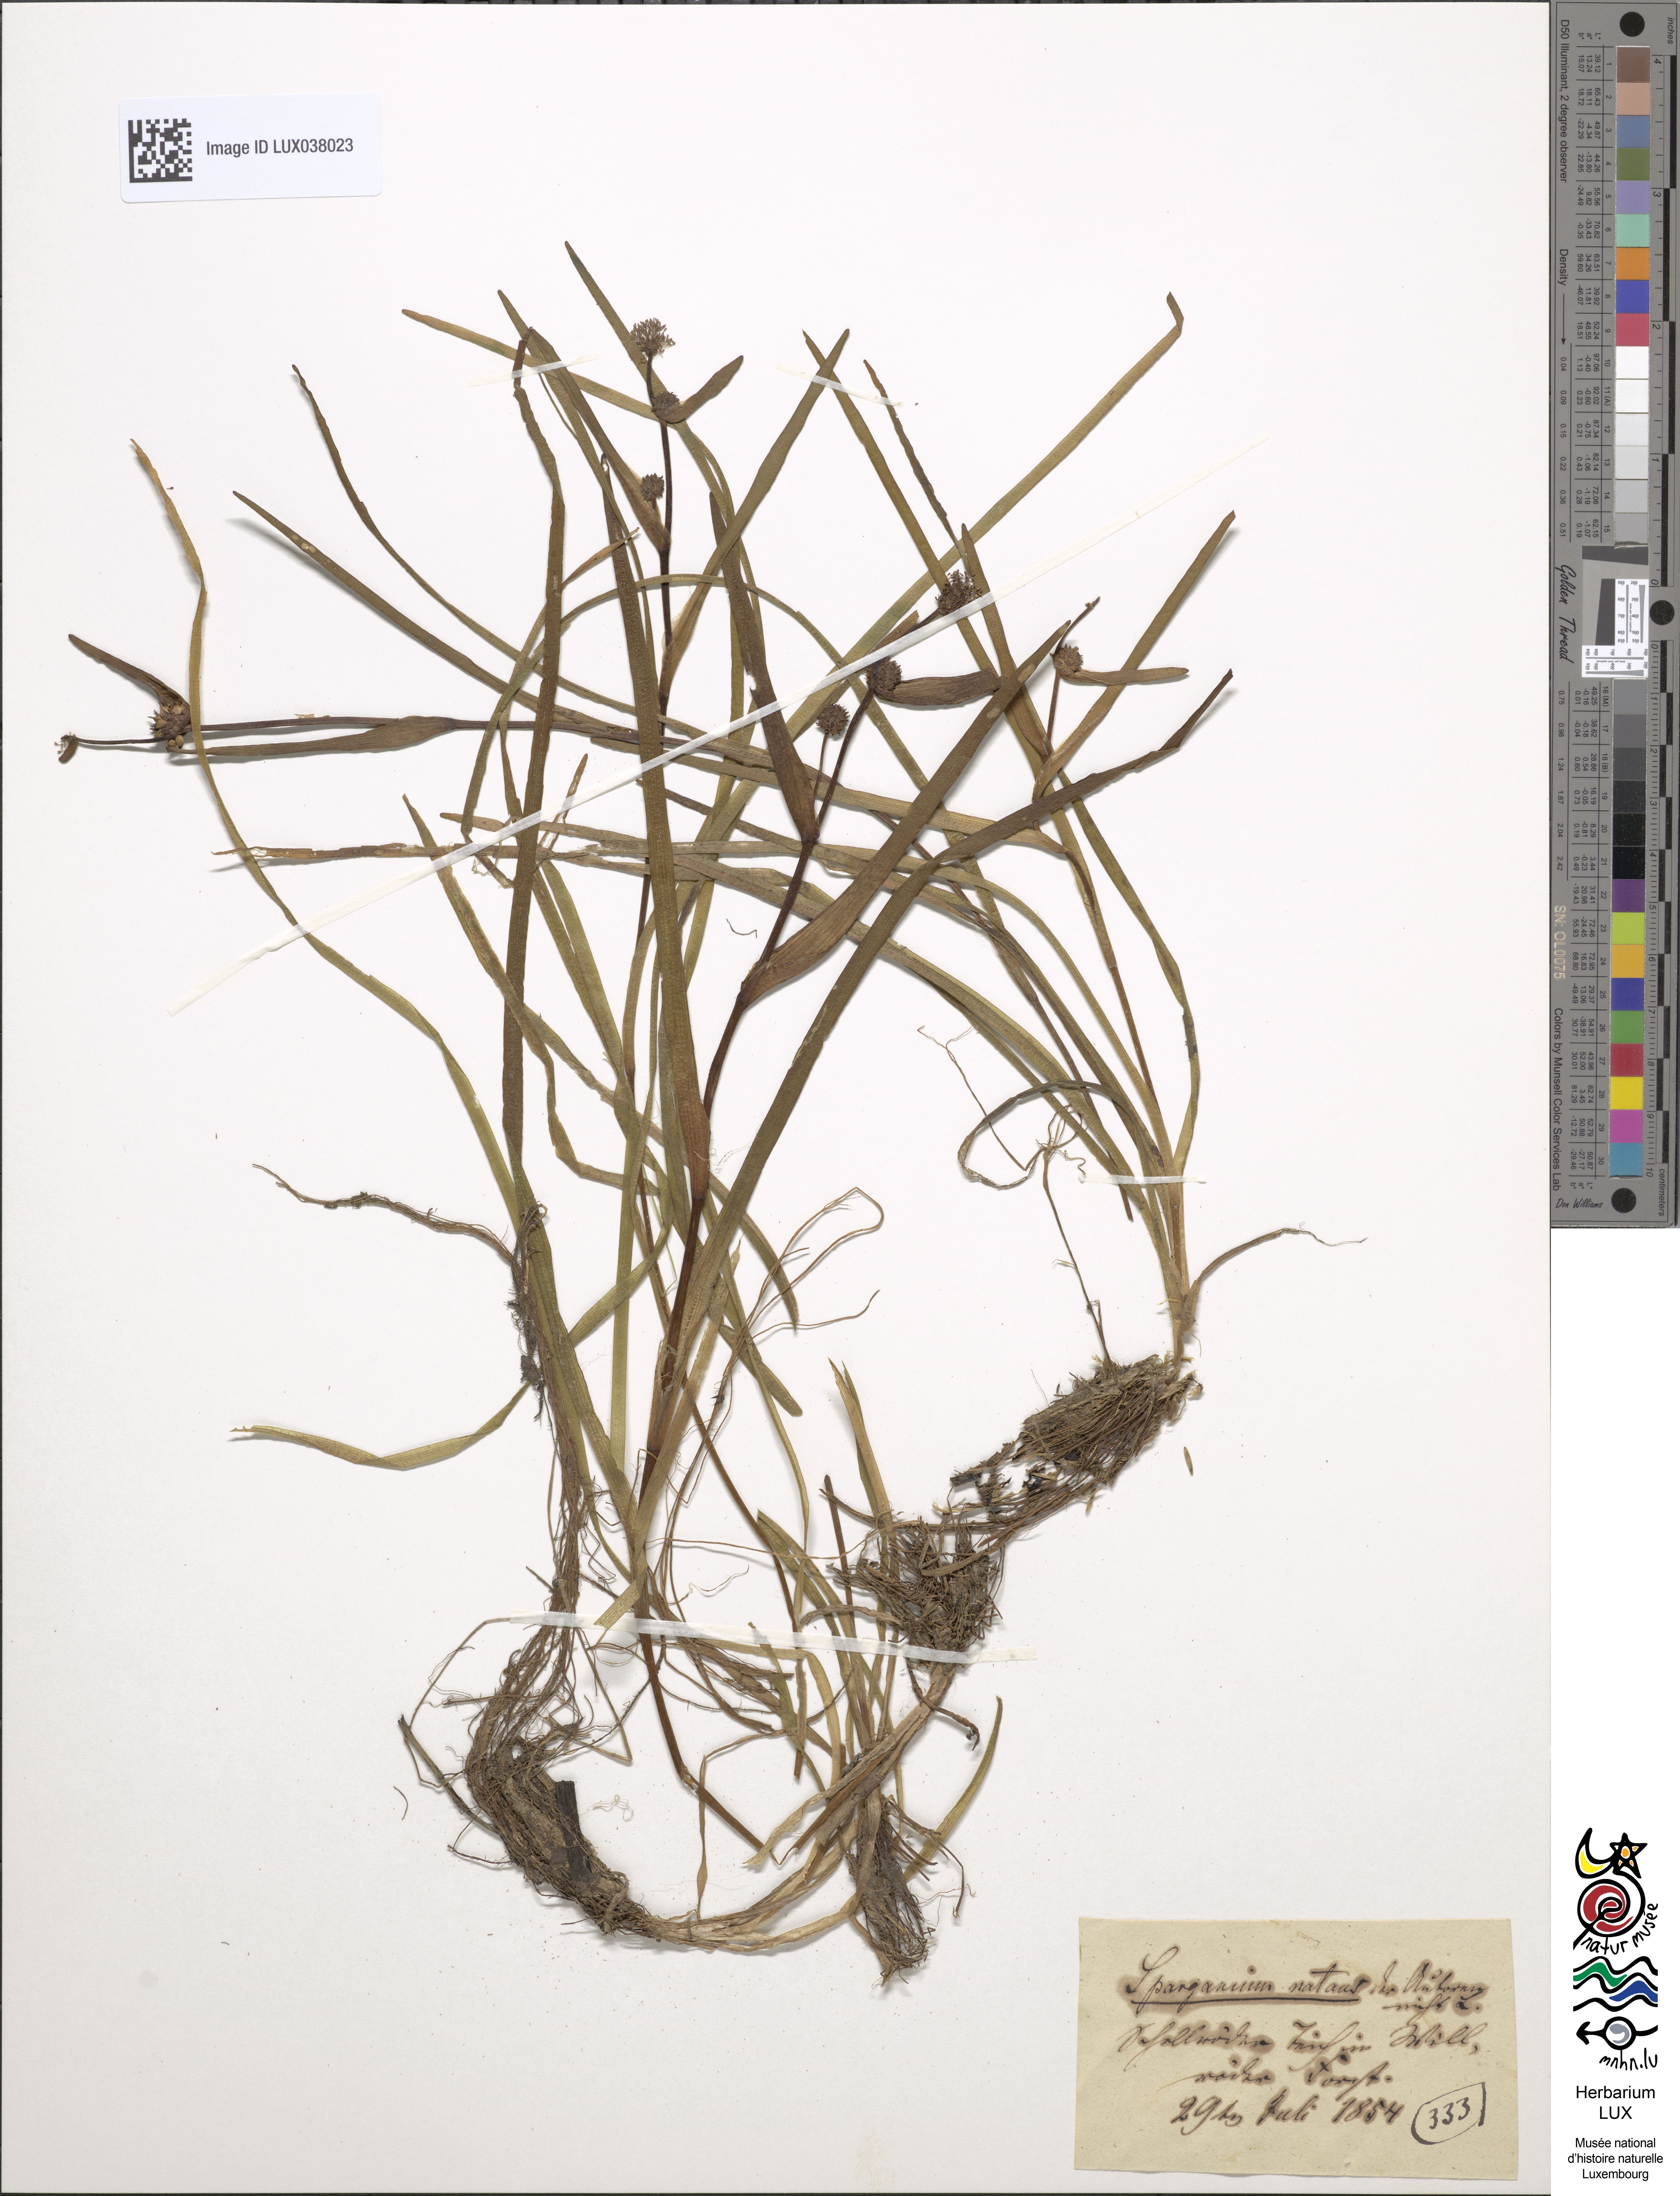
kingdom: Plantae
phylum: Tracheophyta
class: Liliopsida
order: Poales
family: Typhaceae
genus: Sparganium
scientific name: Sparganium natans
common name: Least bur-reed
